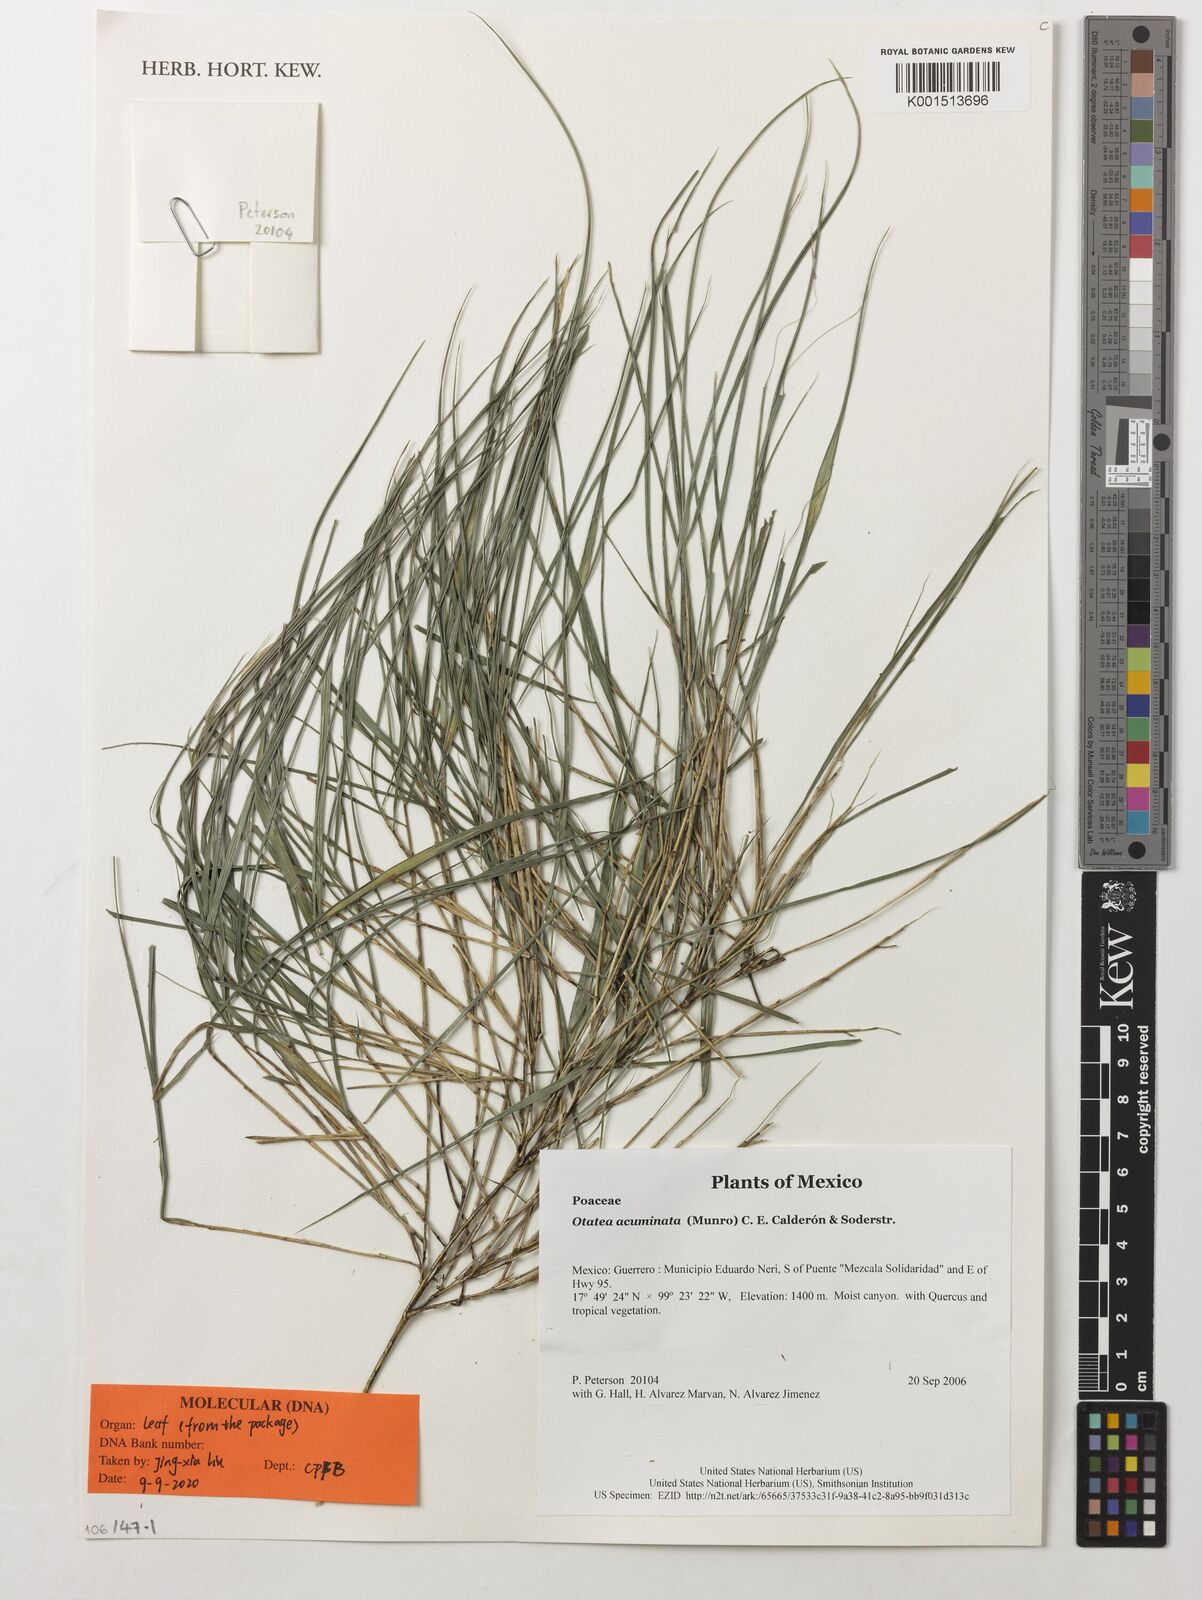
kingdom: Plantae
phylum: Tracheophyta
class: Liliopsida
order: Poales
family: Poaceae
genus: Otatea
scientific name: Otatea acuminata
